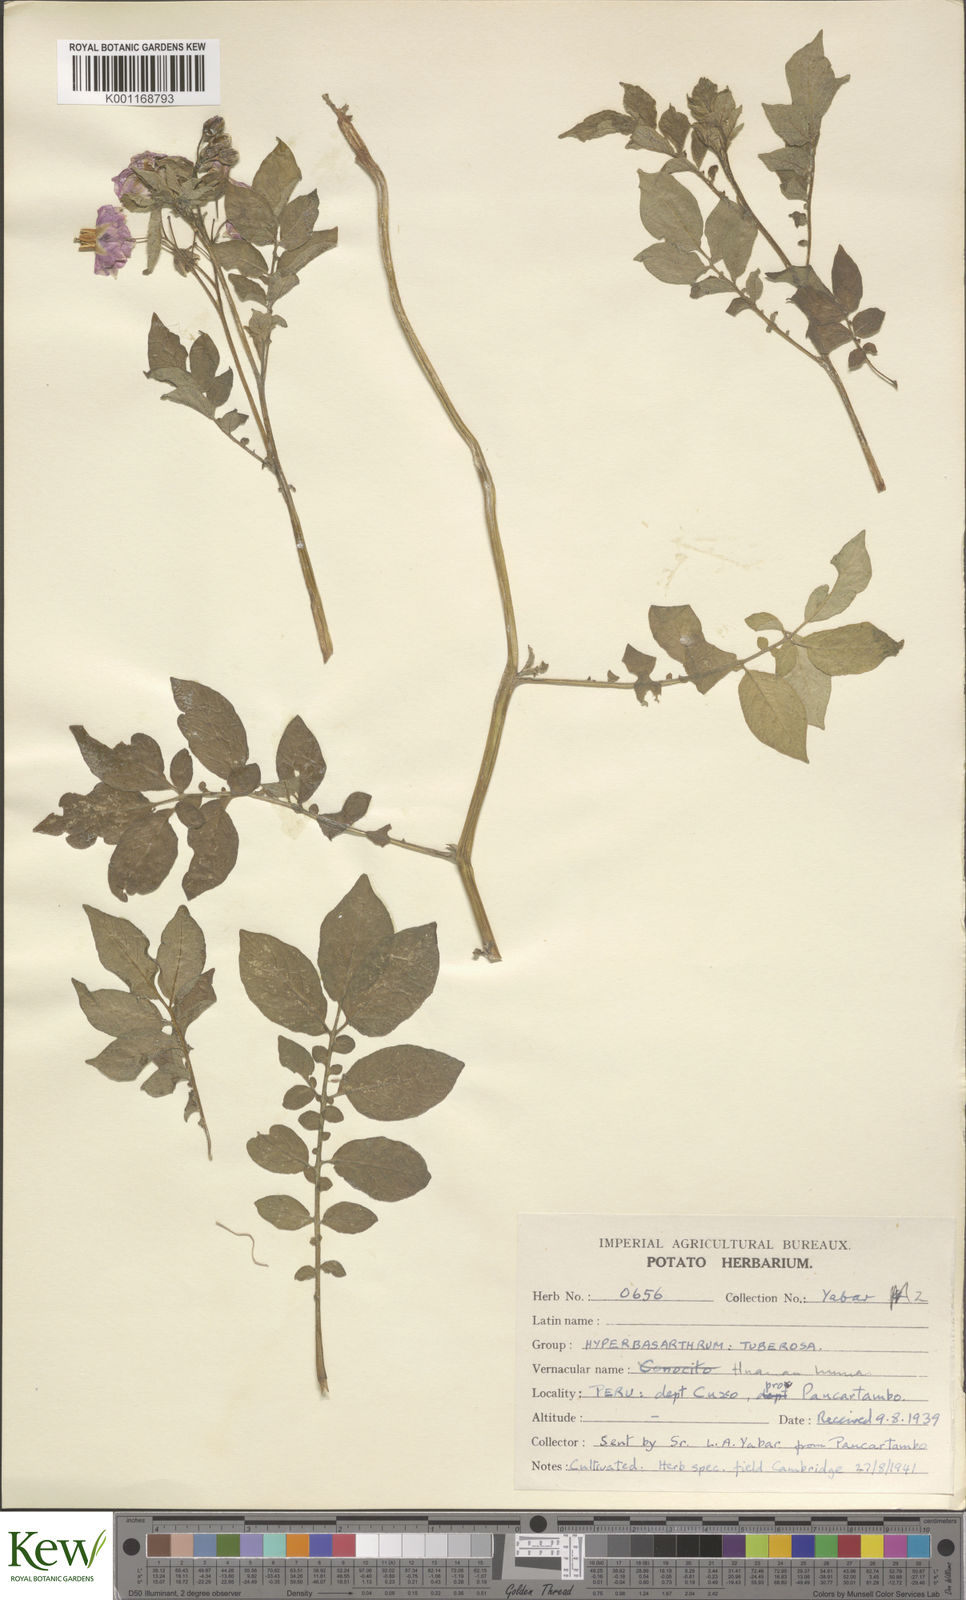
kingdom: Plantae
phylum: Tracheophyta
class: Magnoliopsida
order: Solanales
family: Solanaceae
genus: Solanum
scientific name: Solanum chaucha
